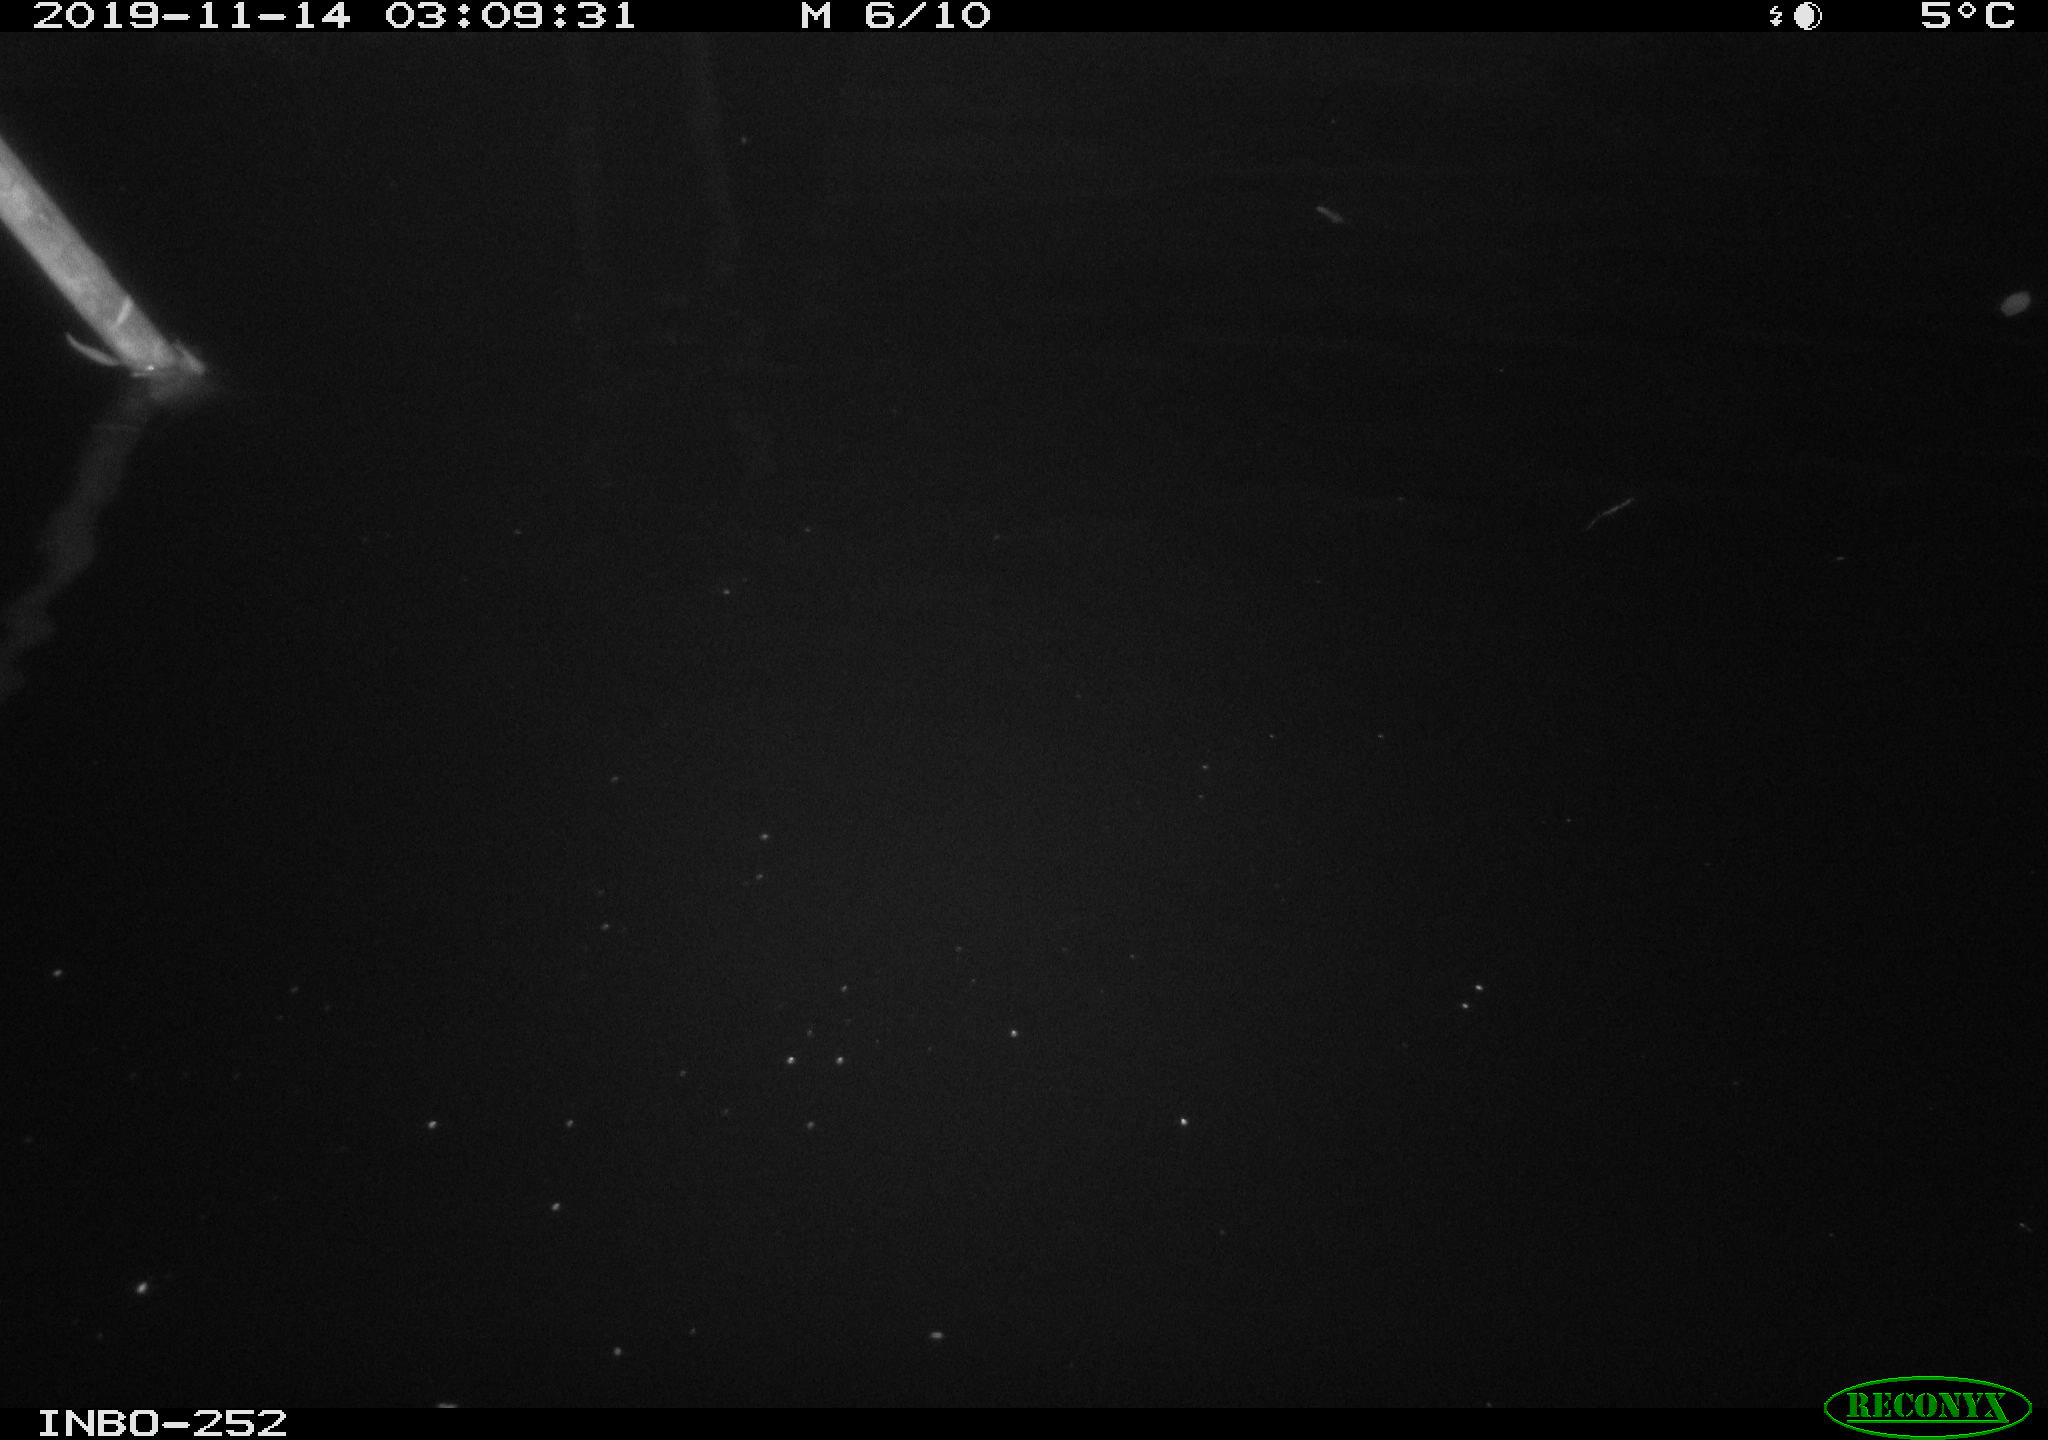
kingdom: Animalia
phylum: Chordata
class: Aves
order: Anseriformes
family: Anatidae
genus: Anas
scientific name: Anas platyrhynchos
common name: Mallard
